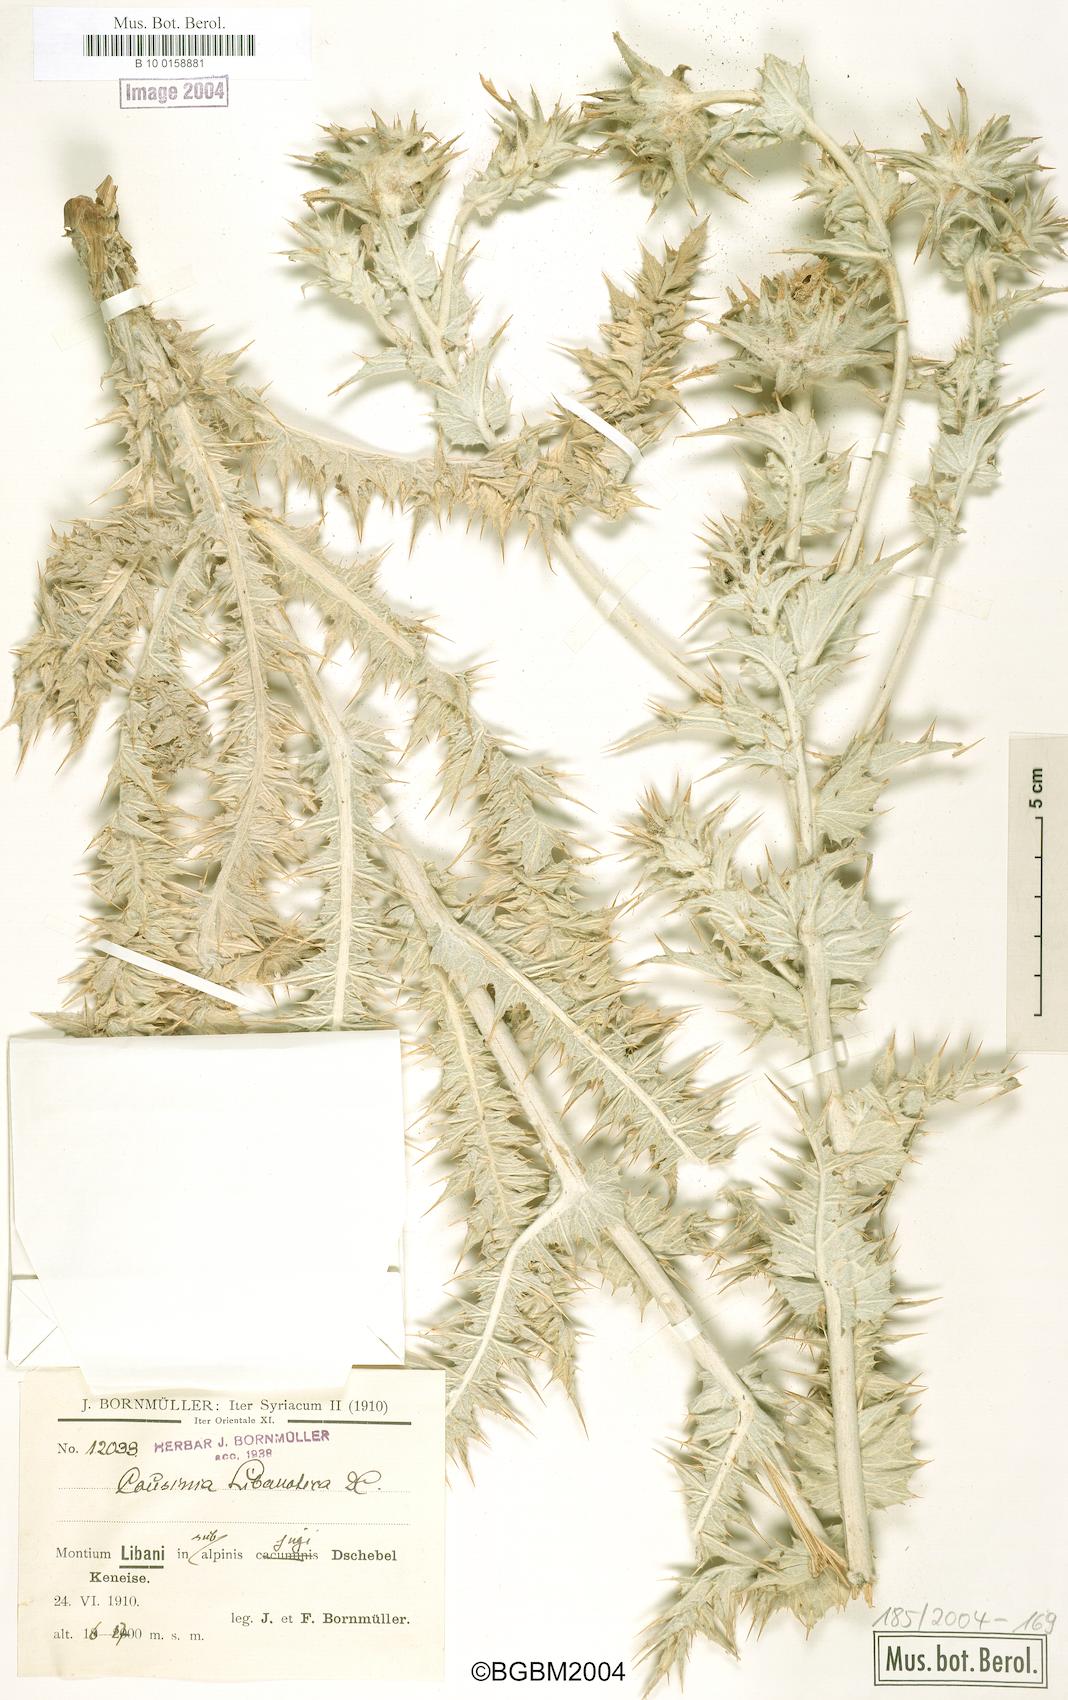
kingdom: Plantae
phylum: Tracheophyta
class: Magnoliopsida
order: Asterales
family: Asteraceae
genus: Cousinia
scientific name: Cousinia libanotica
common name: Lebanon cousinia
